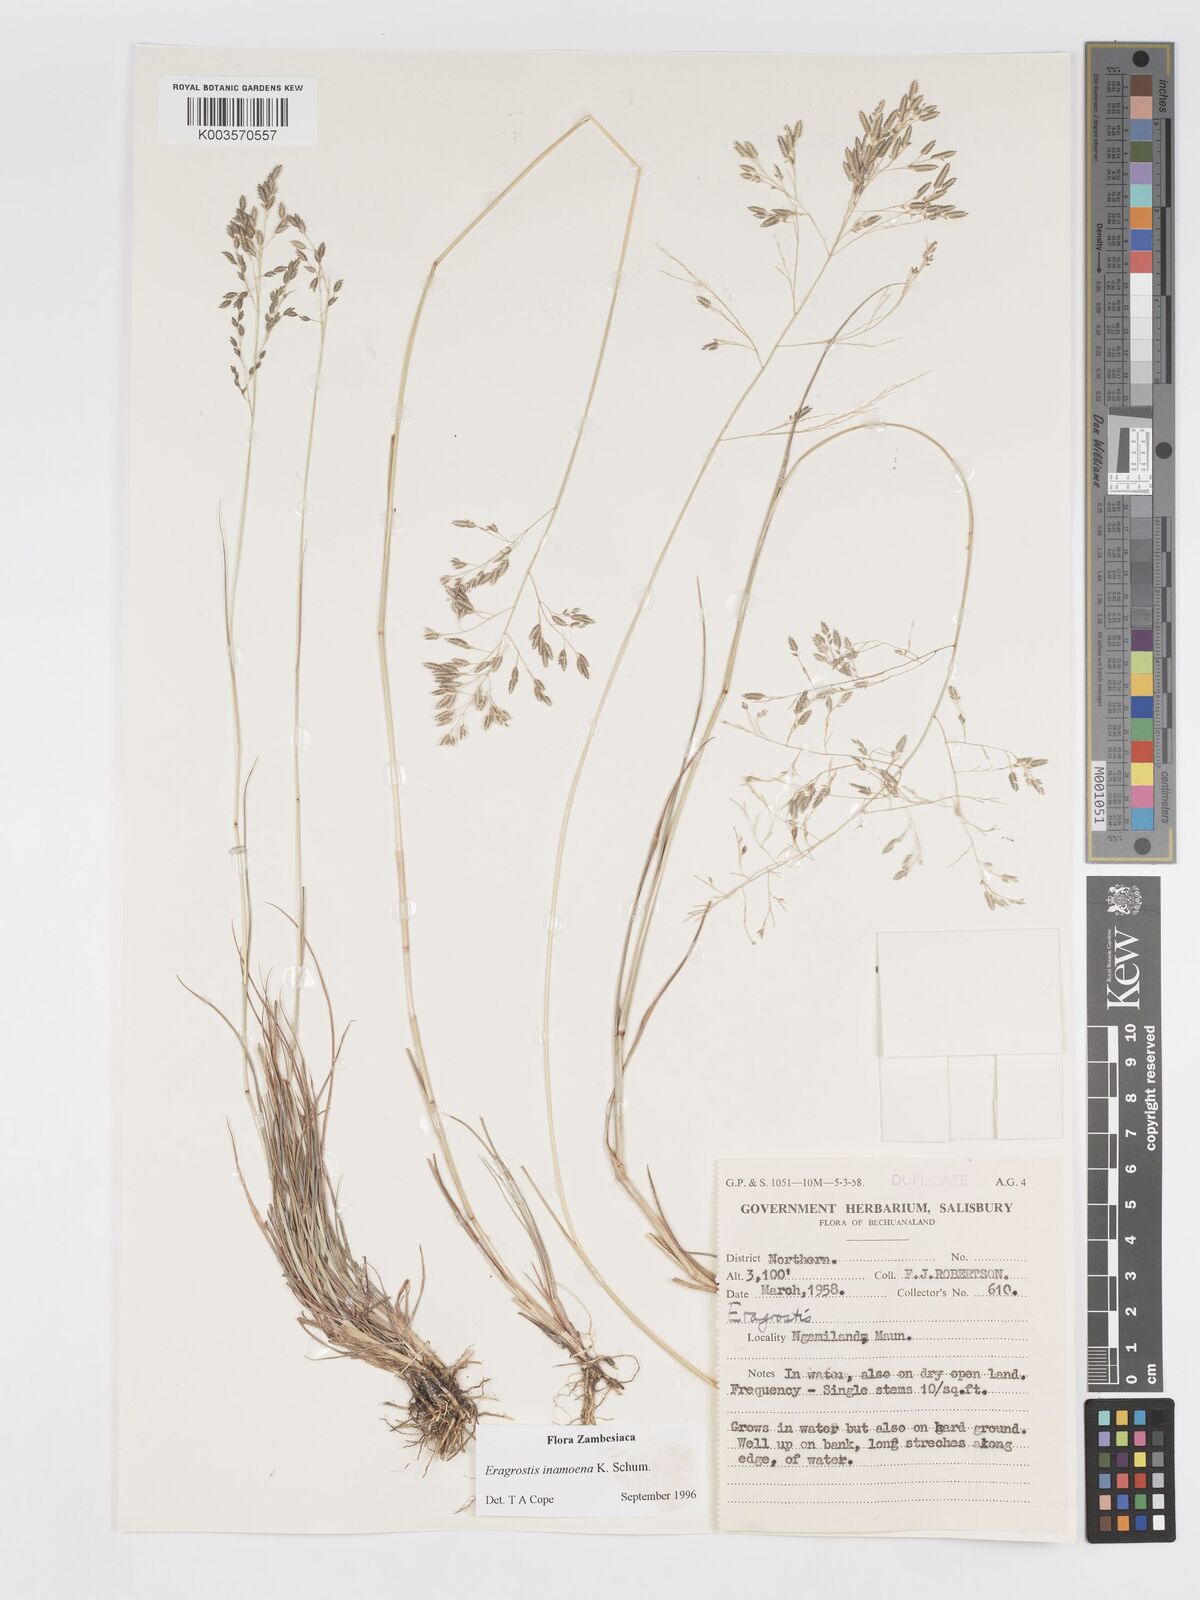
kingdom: Plantae
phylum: Tracheophyta
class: Liliopsida
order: Poales
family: Poaceae
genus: Eragrostis
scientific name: Eragrostis inamoena
